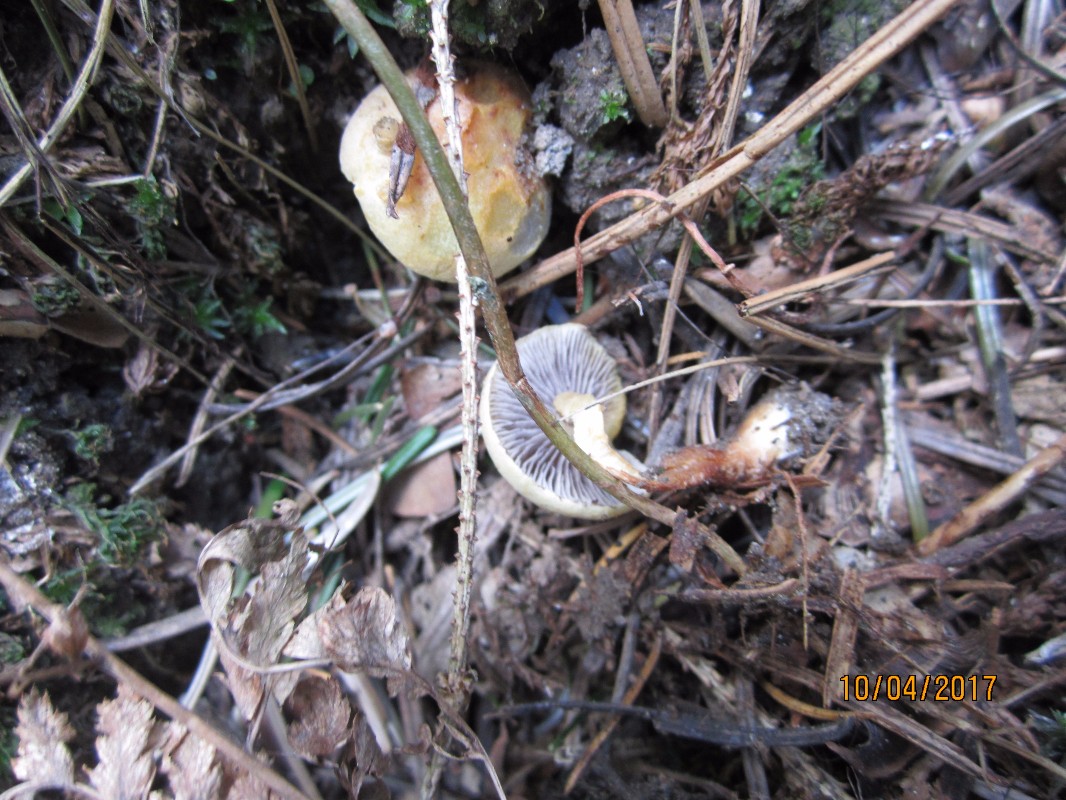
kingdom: Fungi
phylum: Basidiomycota
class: Agaricomycetes
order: Agaricales
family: Strophariaceae
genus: Hypholoma
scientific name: Hypholoma capnoides
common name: gran-svovlhat
